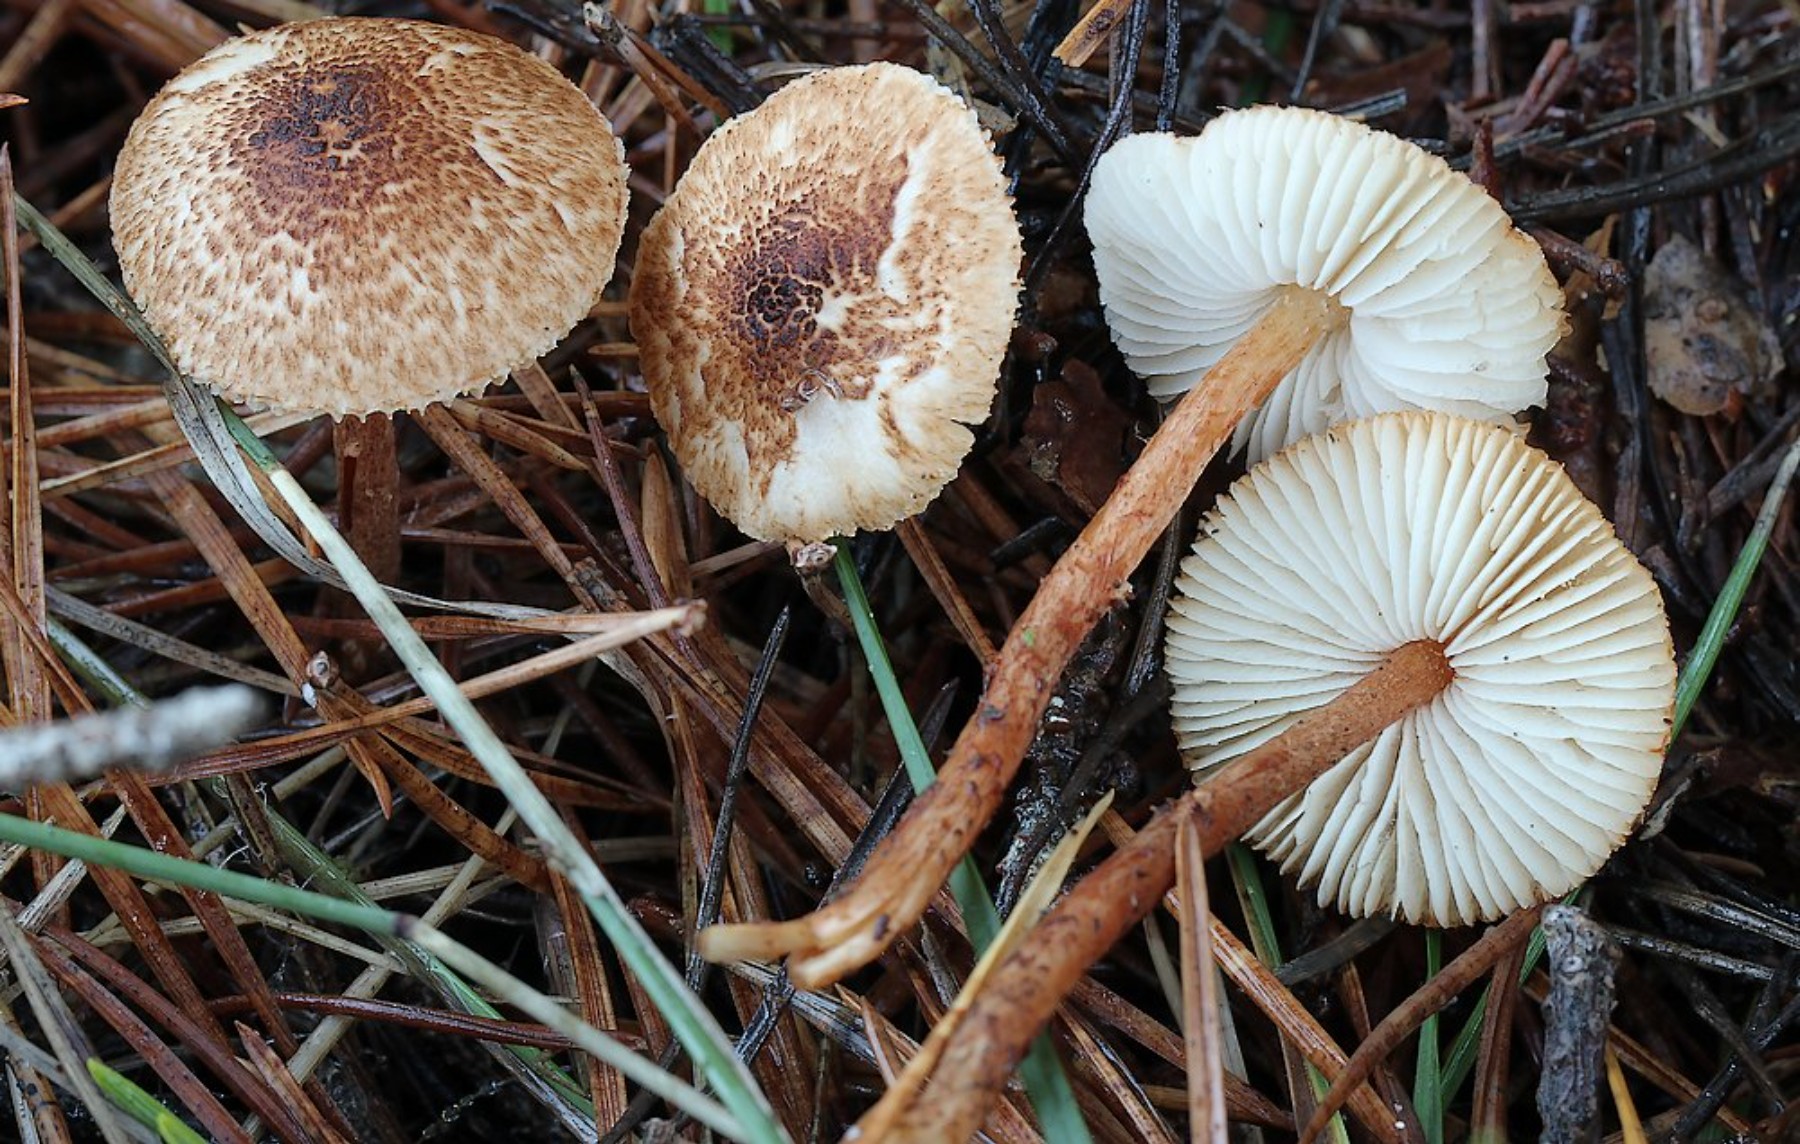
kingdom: Fungi
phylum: Basidiomycota
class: Agaricomycetes
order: Agaricales
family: Agaricaceae
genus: Lepiota
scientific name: Lepiota castanea
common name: kastaniebrun parasolhat
